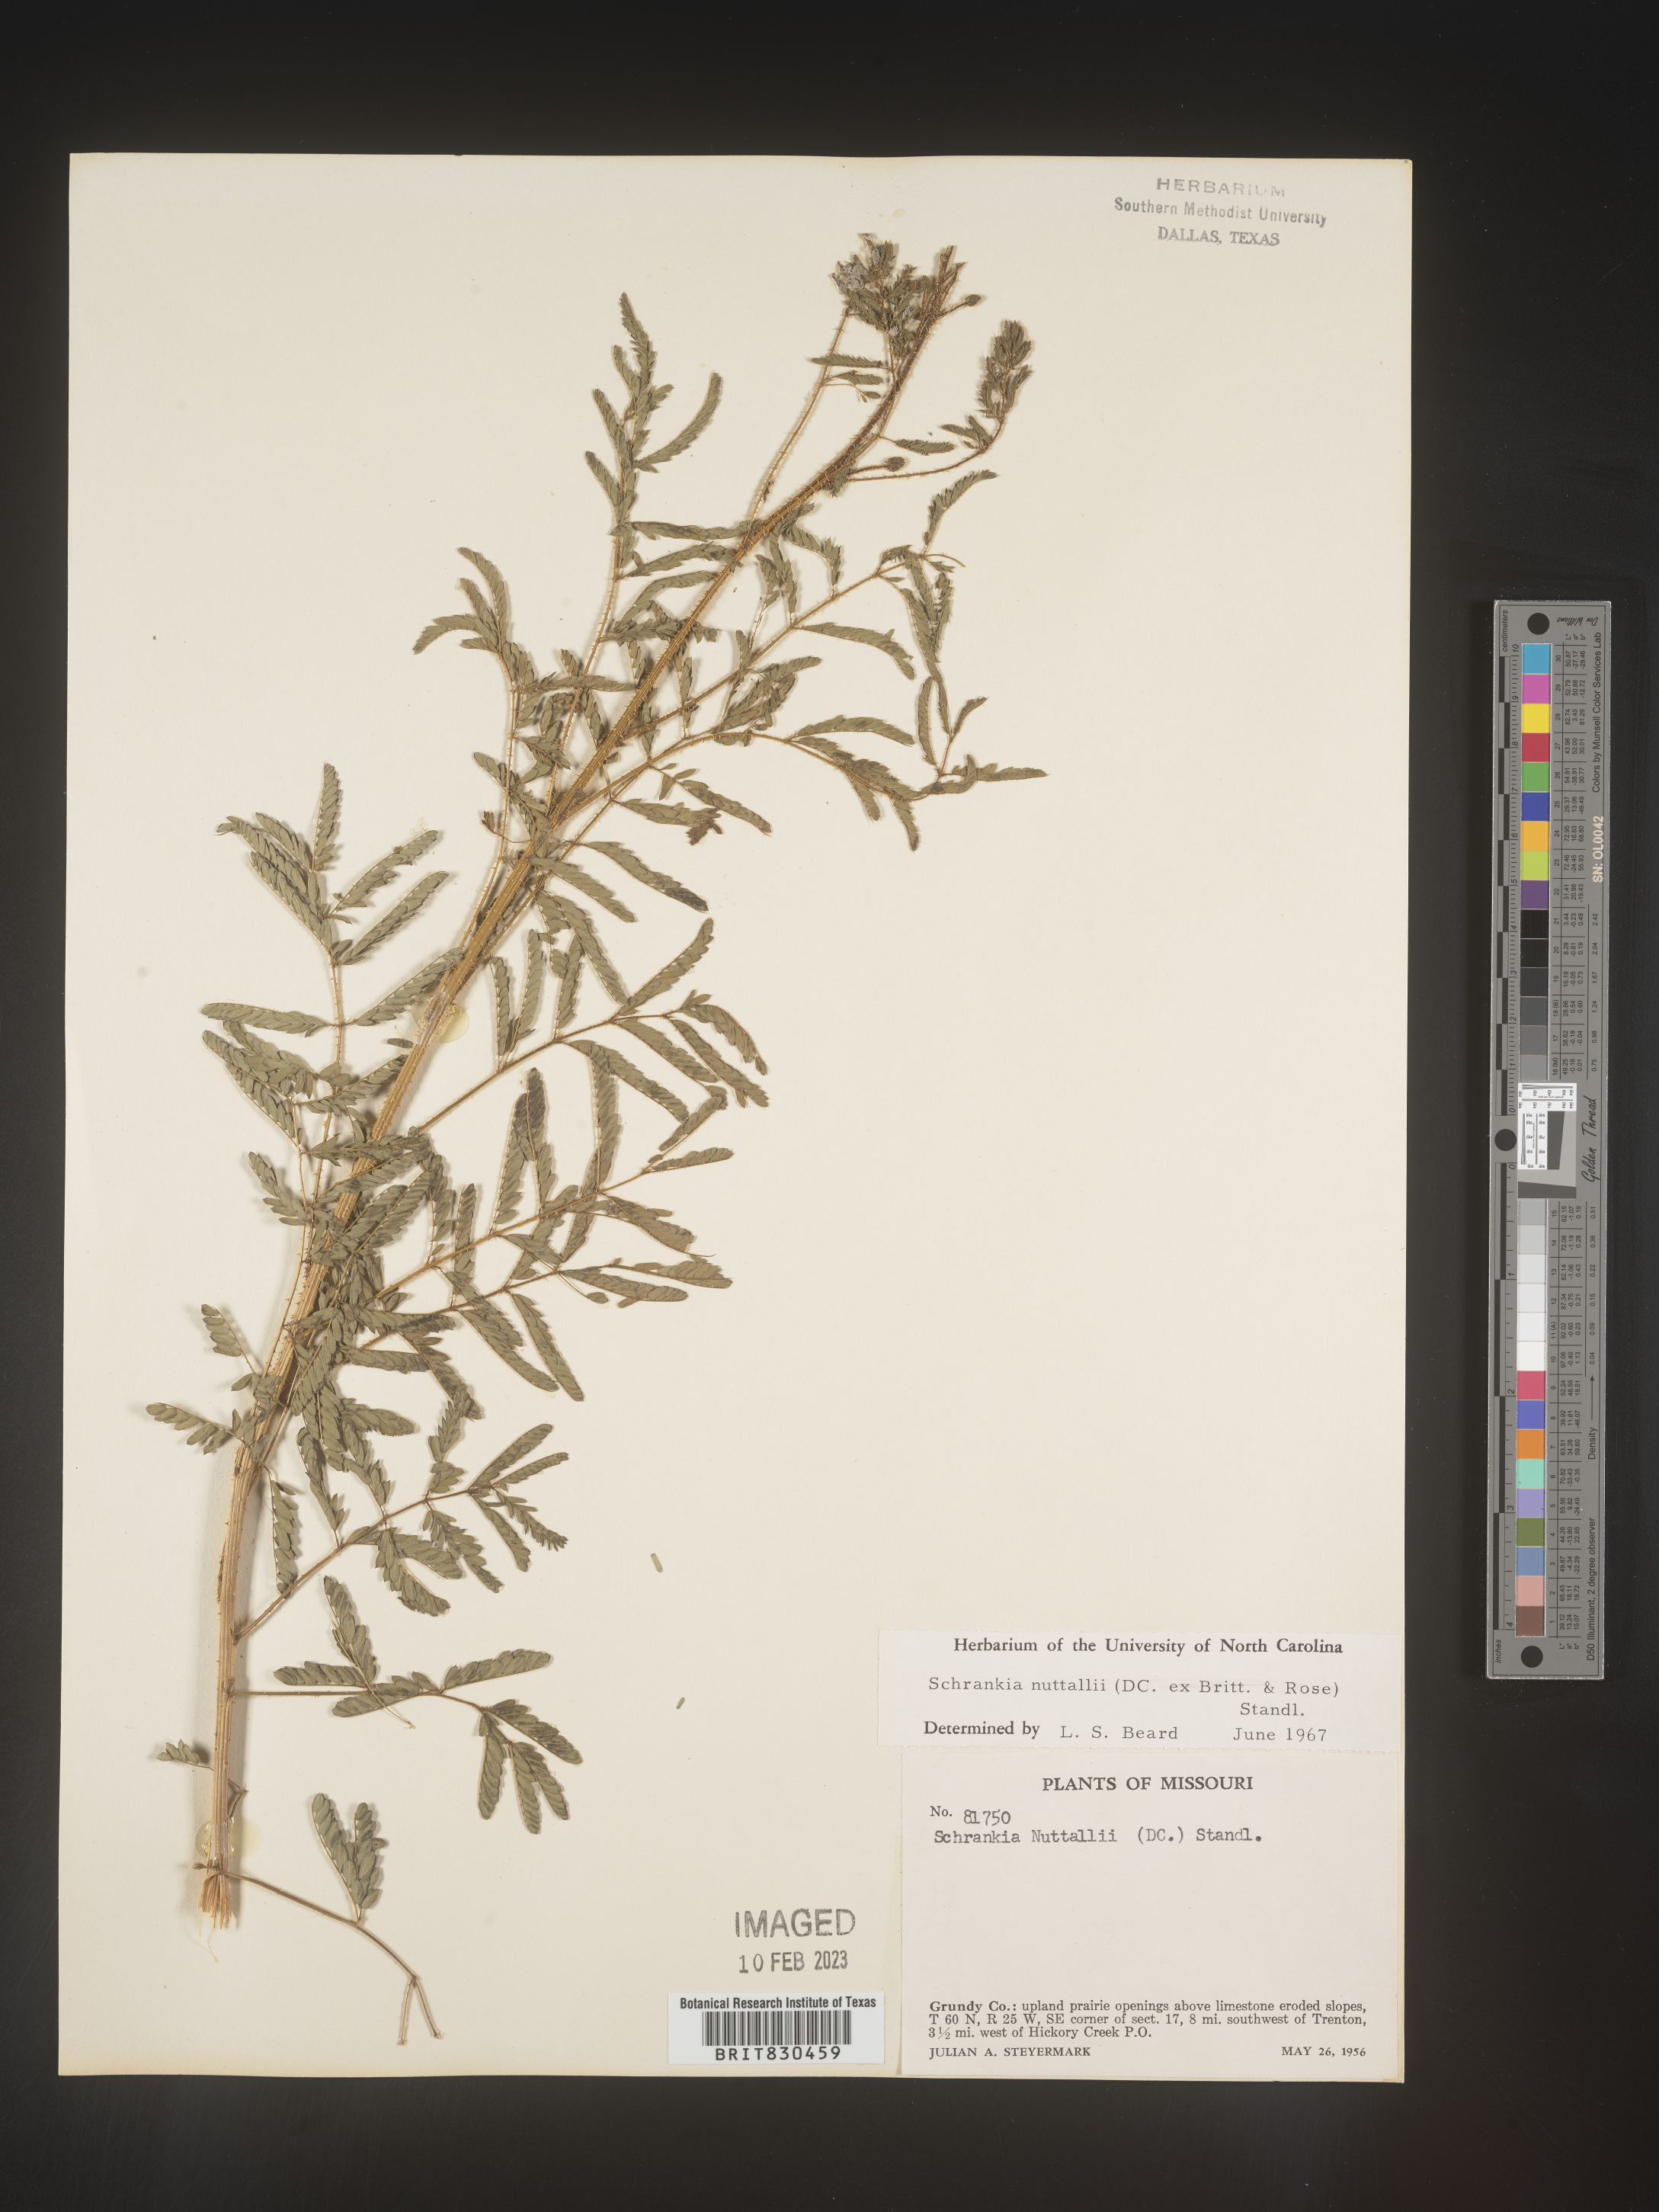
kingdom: Plantae
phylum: Tracheophyta
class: Magnoliopsida
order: Fabales
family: Fabaceae
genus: Mimosa
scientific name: Mimosa quadrivalvis
